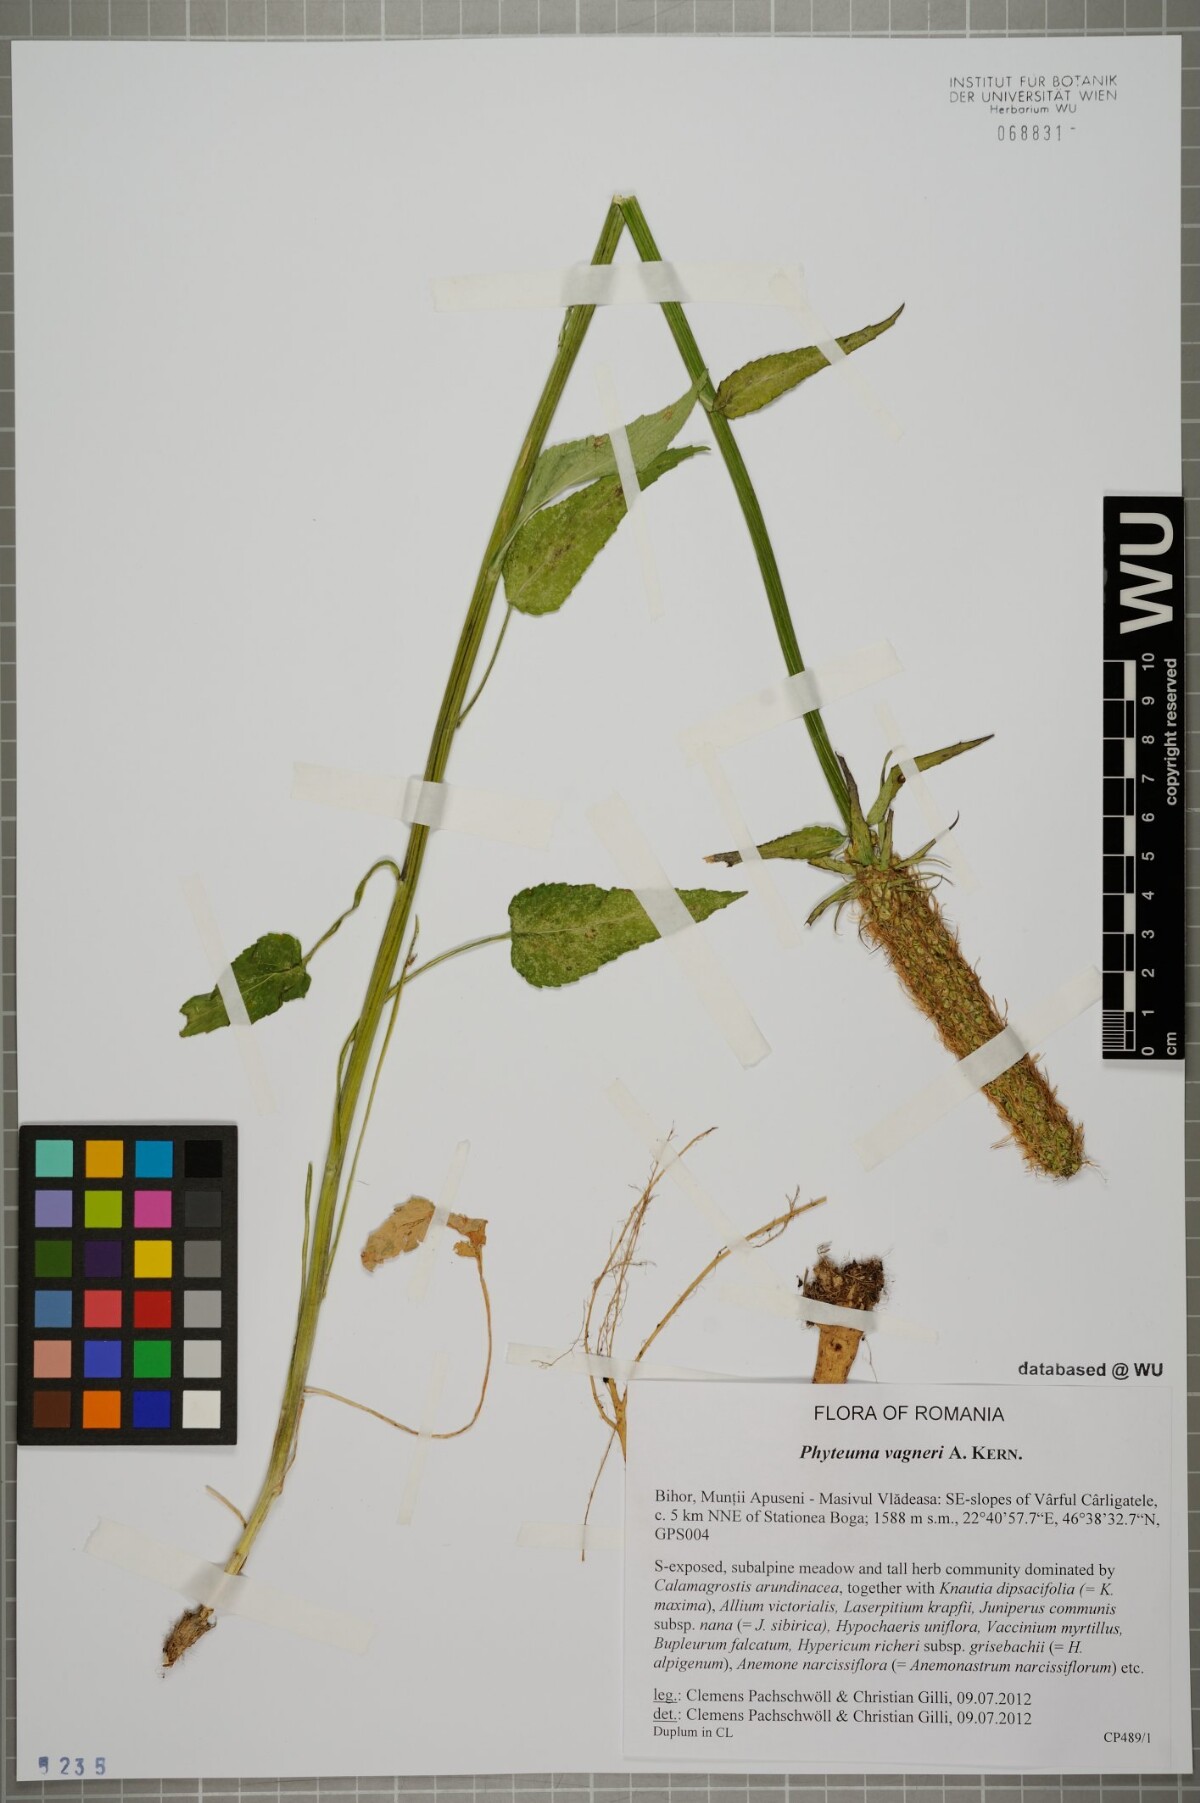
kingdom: Plantae
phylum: Tracheophyta
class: Magnoliopsida
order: Asterales
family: Campanulaceae
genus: Phyteuma
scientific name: Phyteuma vagneri
